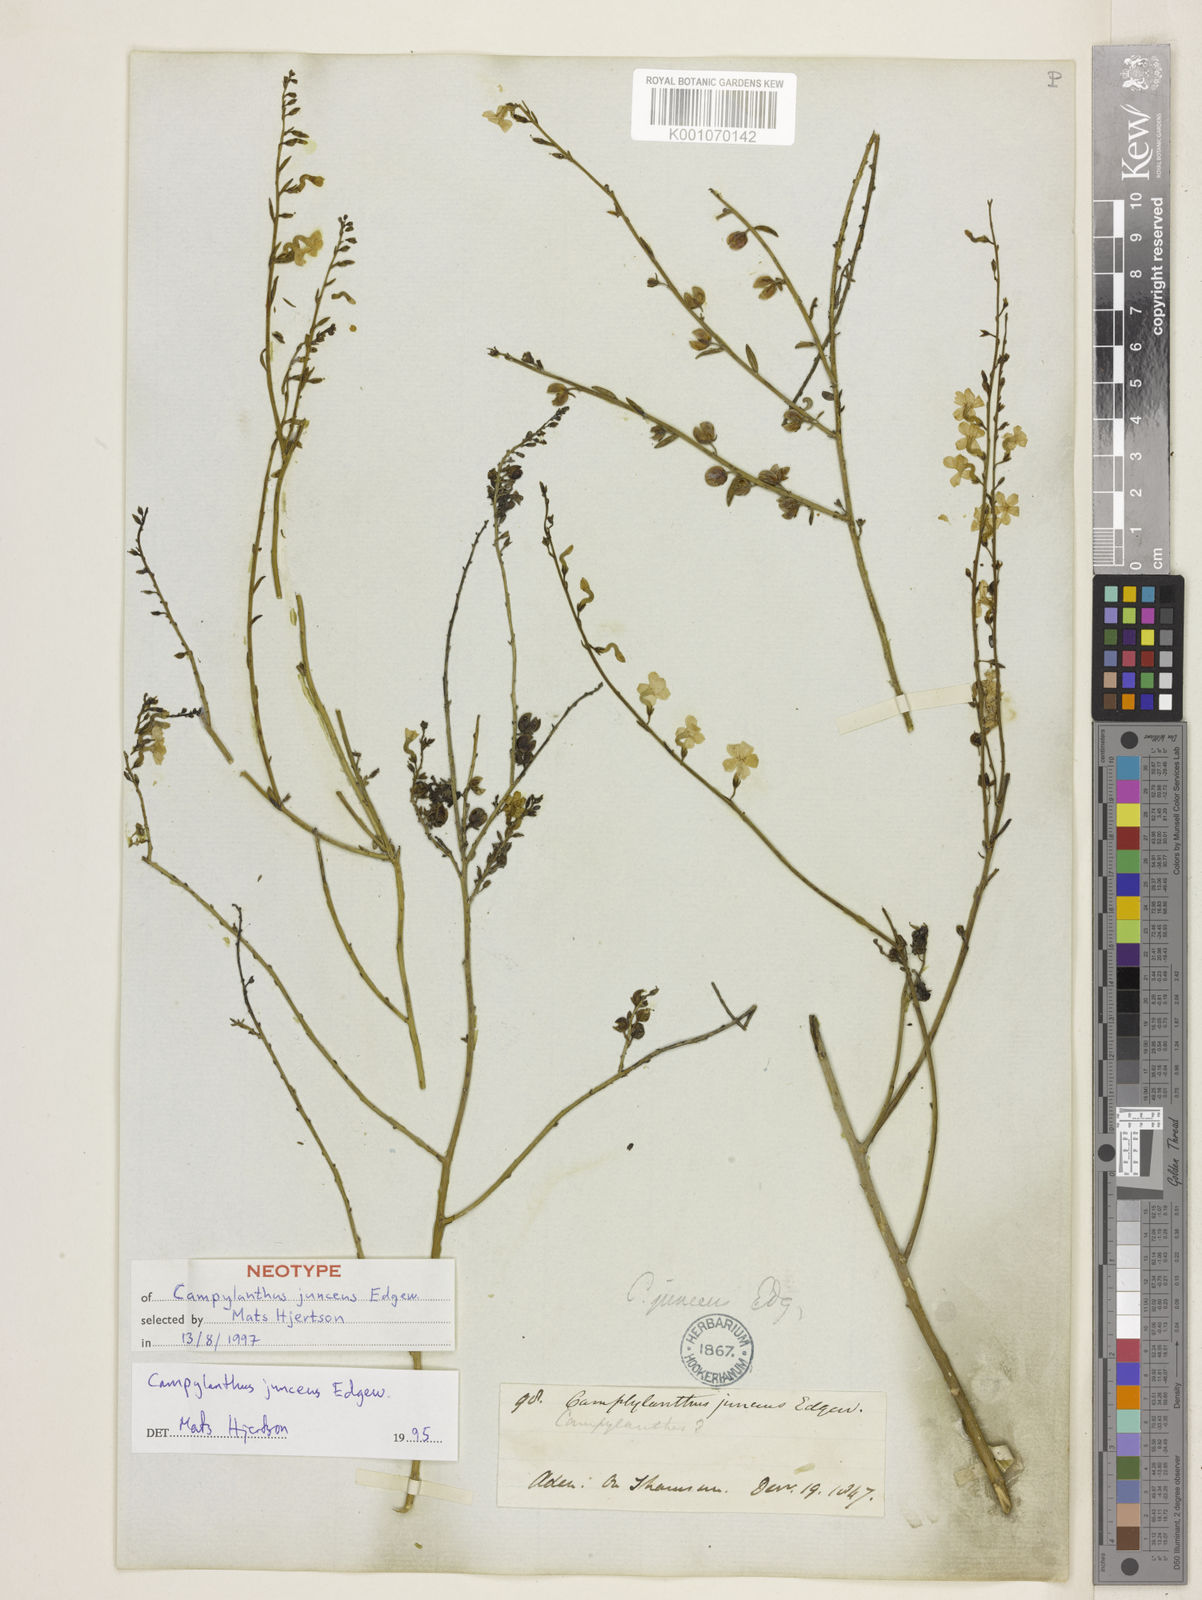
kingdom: Plantae
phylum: Tracheophyta
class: Magnoliopsida
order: Lamiales
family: Plantaginaceae
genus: Campylanthus
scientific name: Campylanthus junceus
